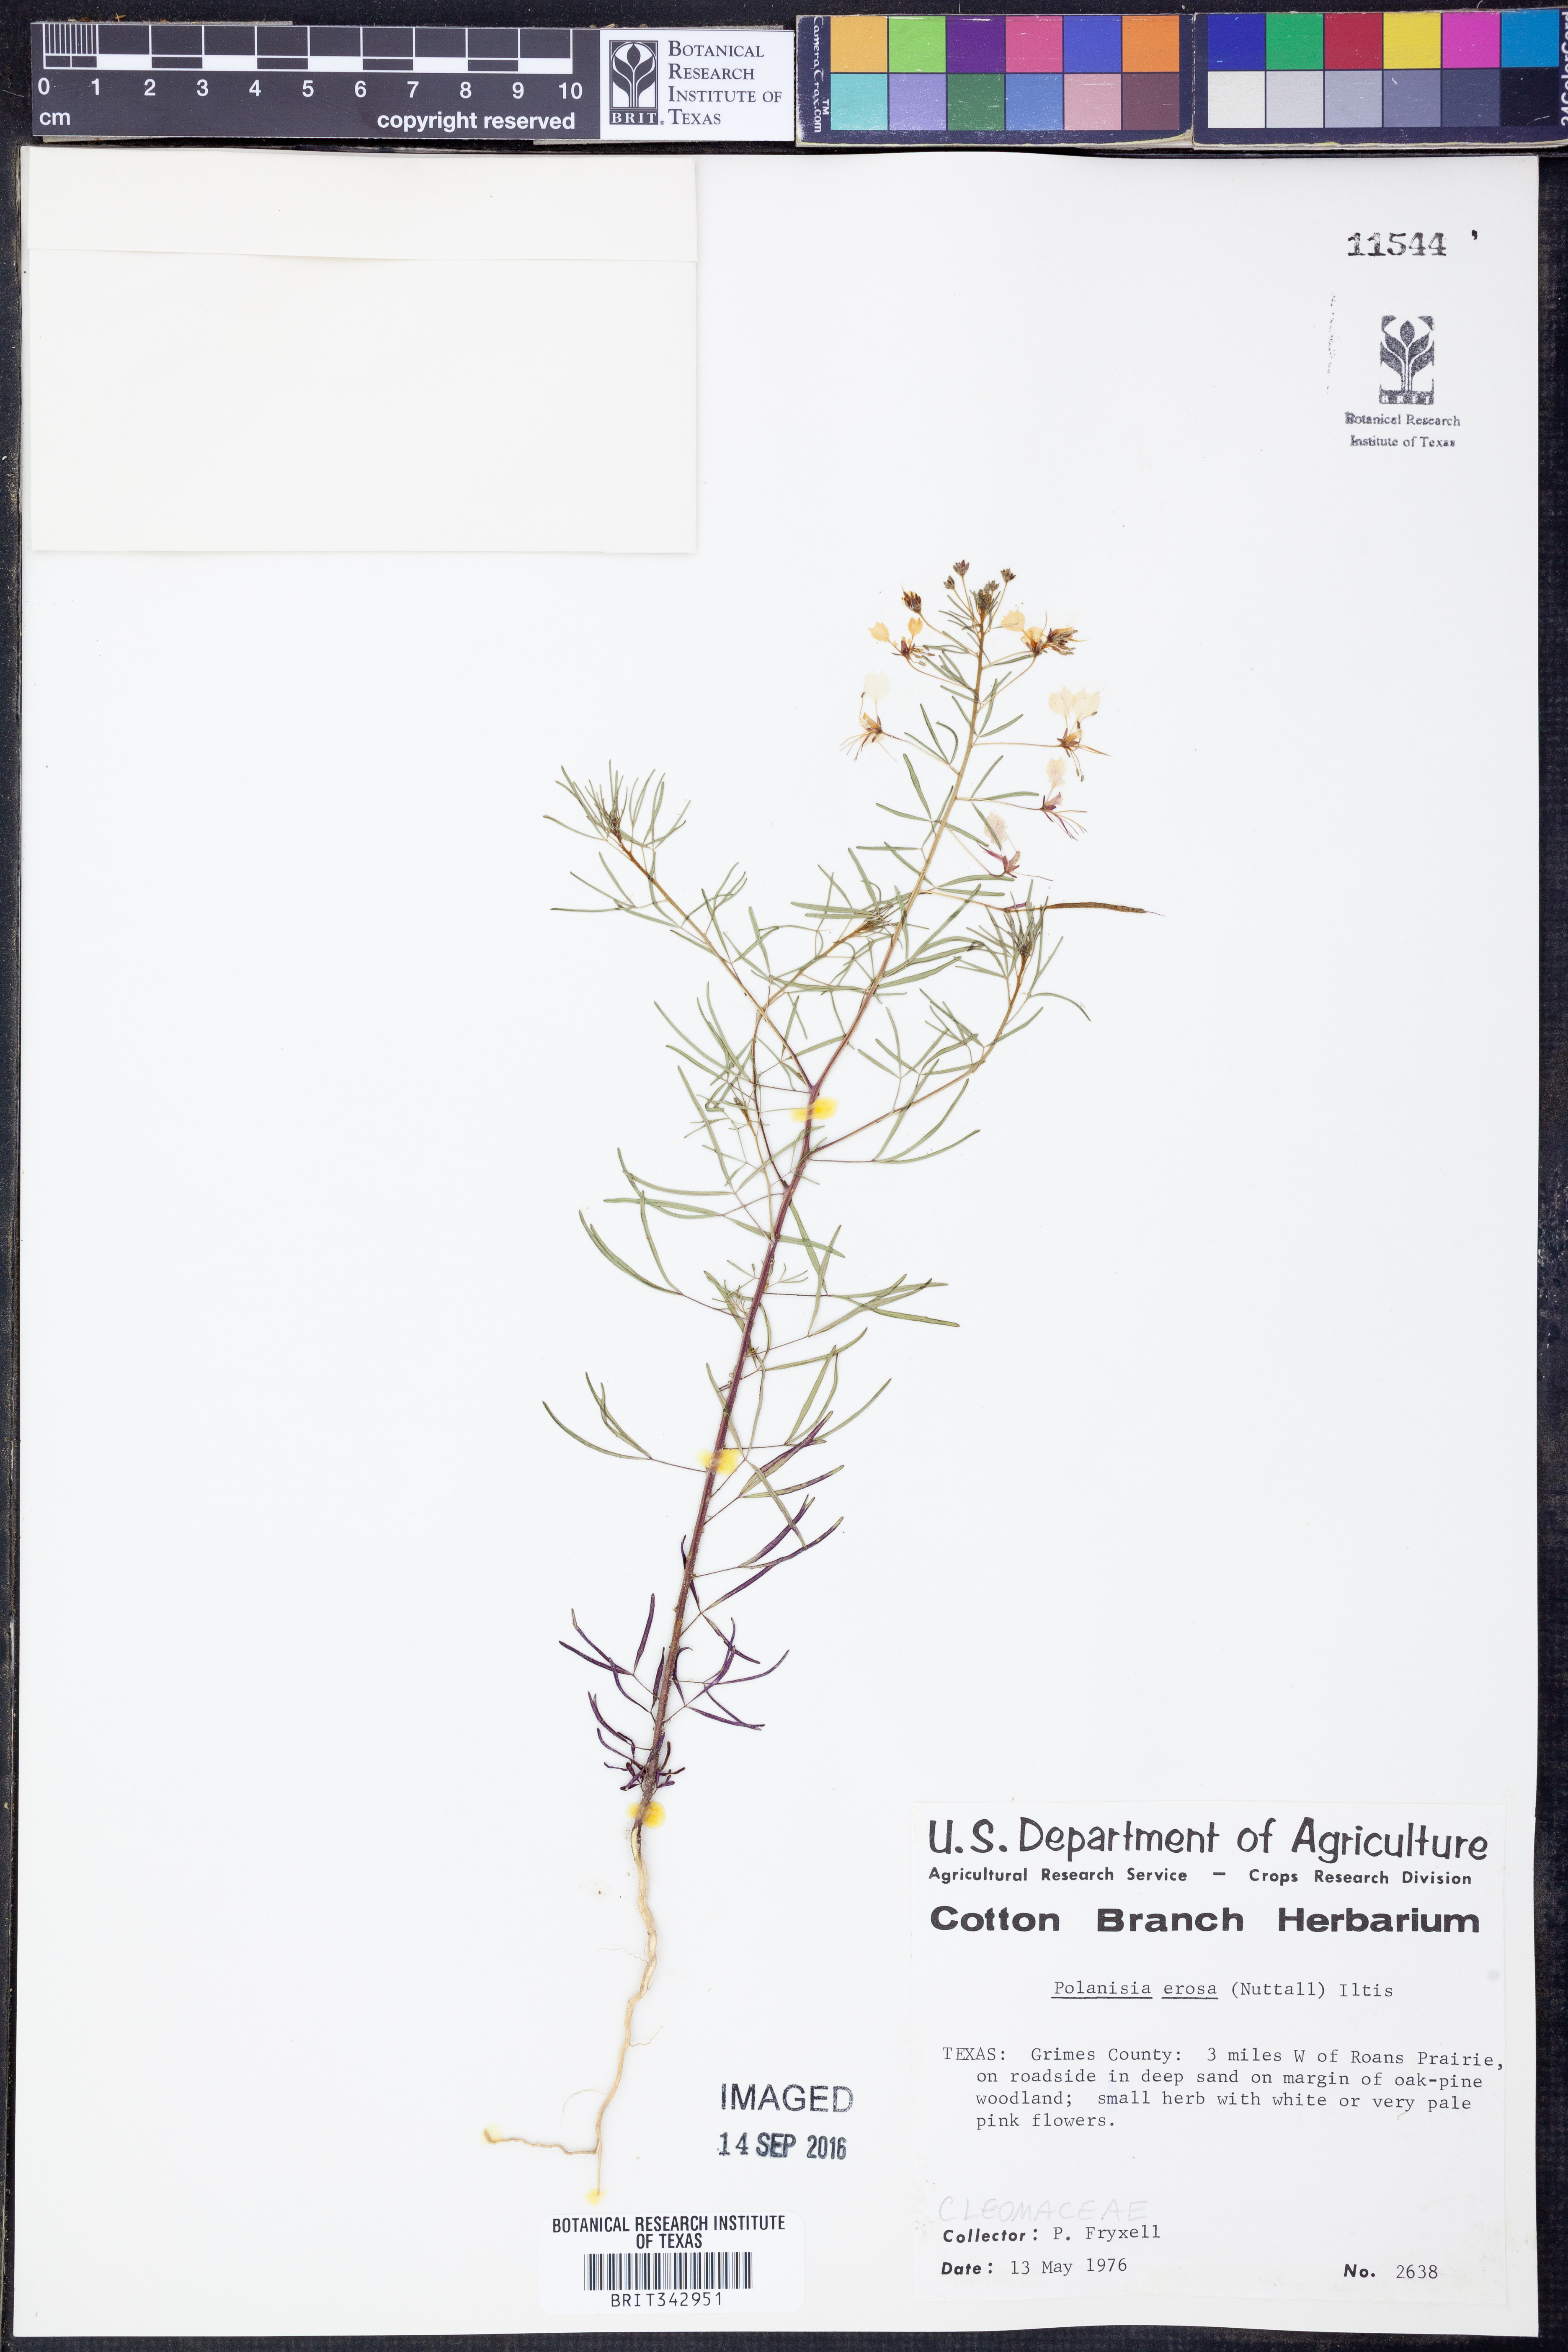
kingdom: Plantae
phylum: Tracheophyta
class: Magnoliopsida
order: Brassicales
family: Cleomaceae
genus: Polanisia
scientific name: Polanisia erosa
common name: Large clammyweed
